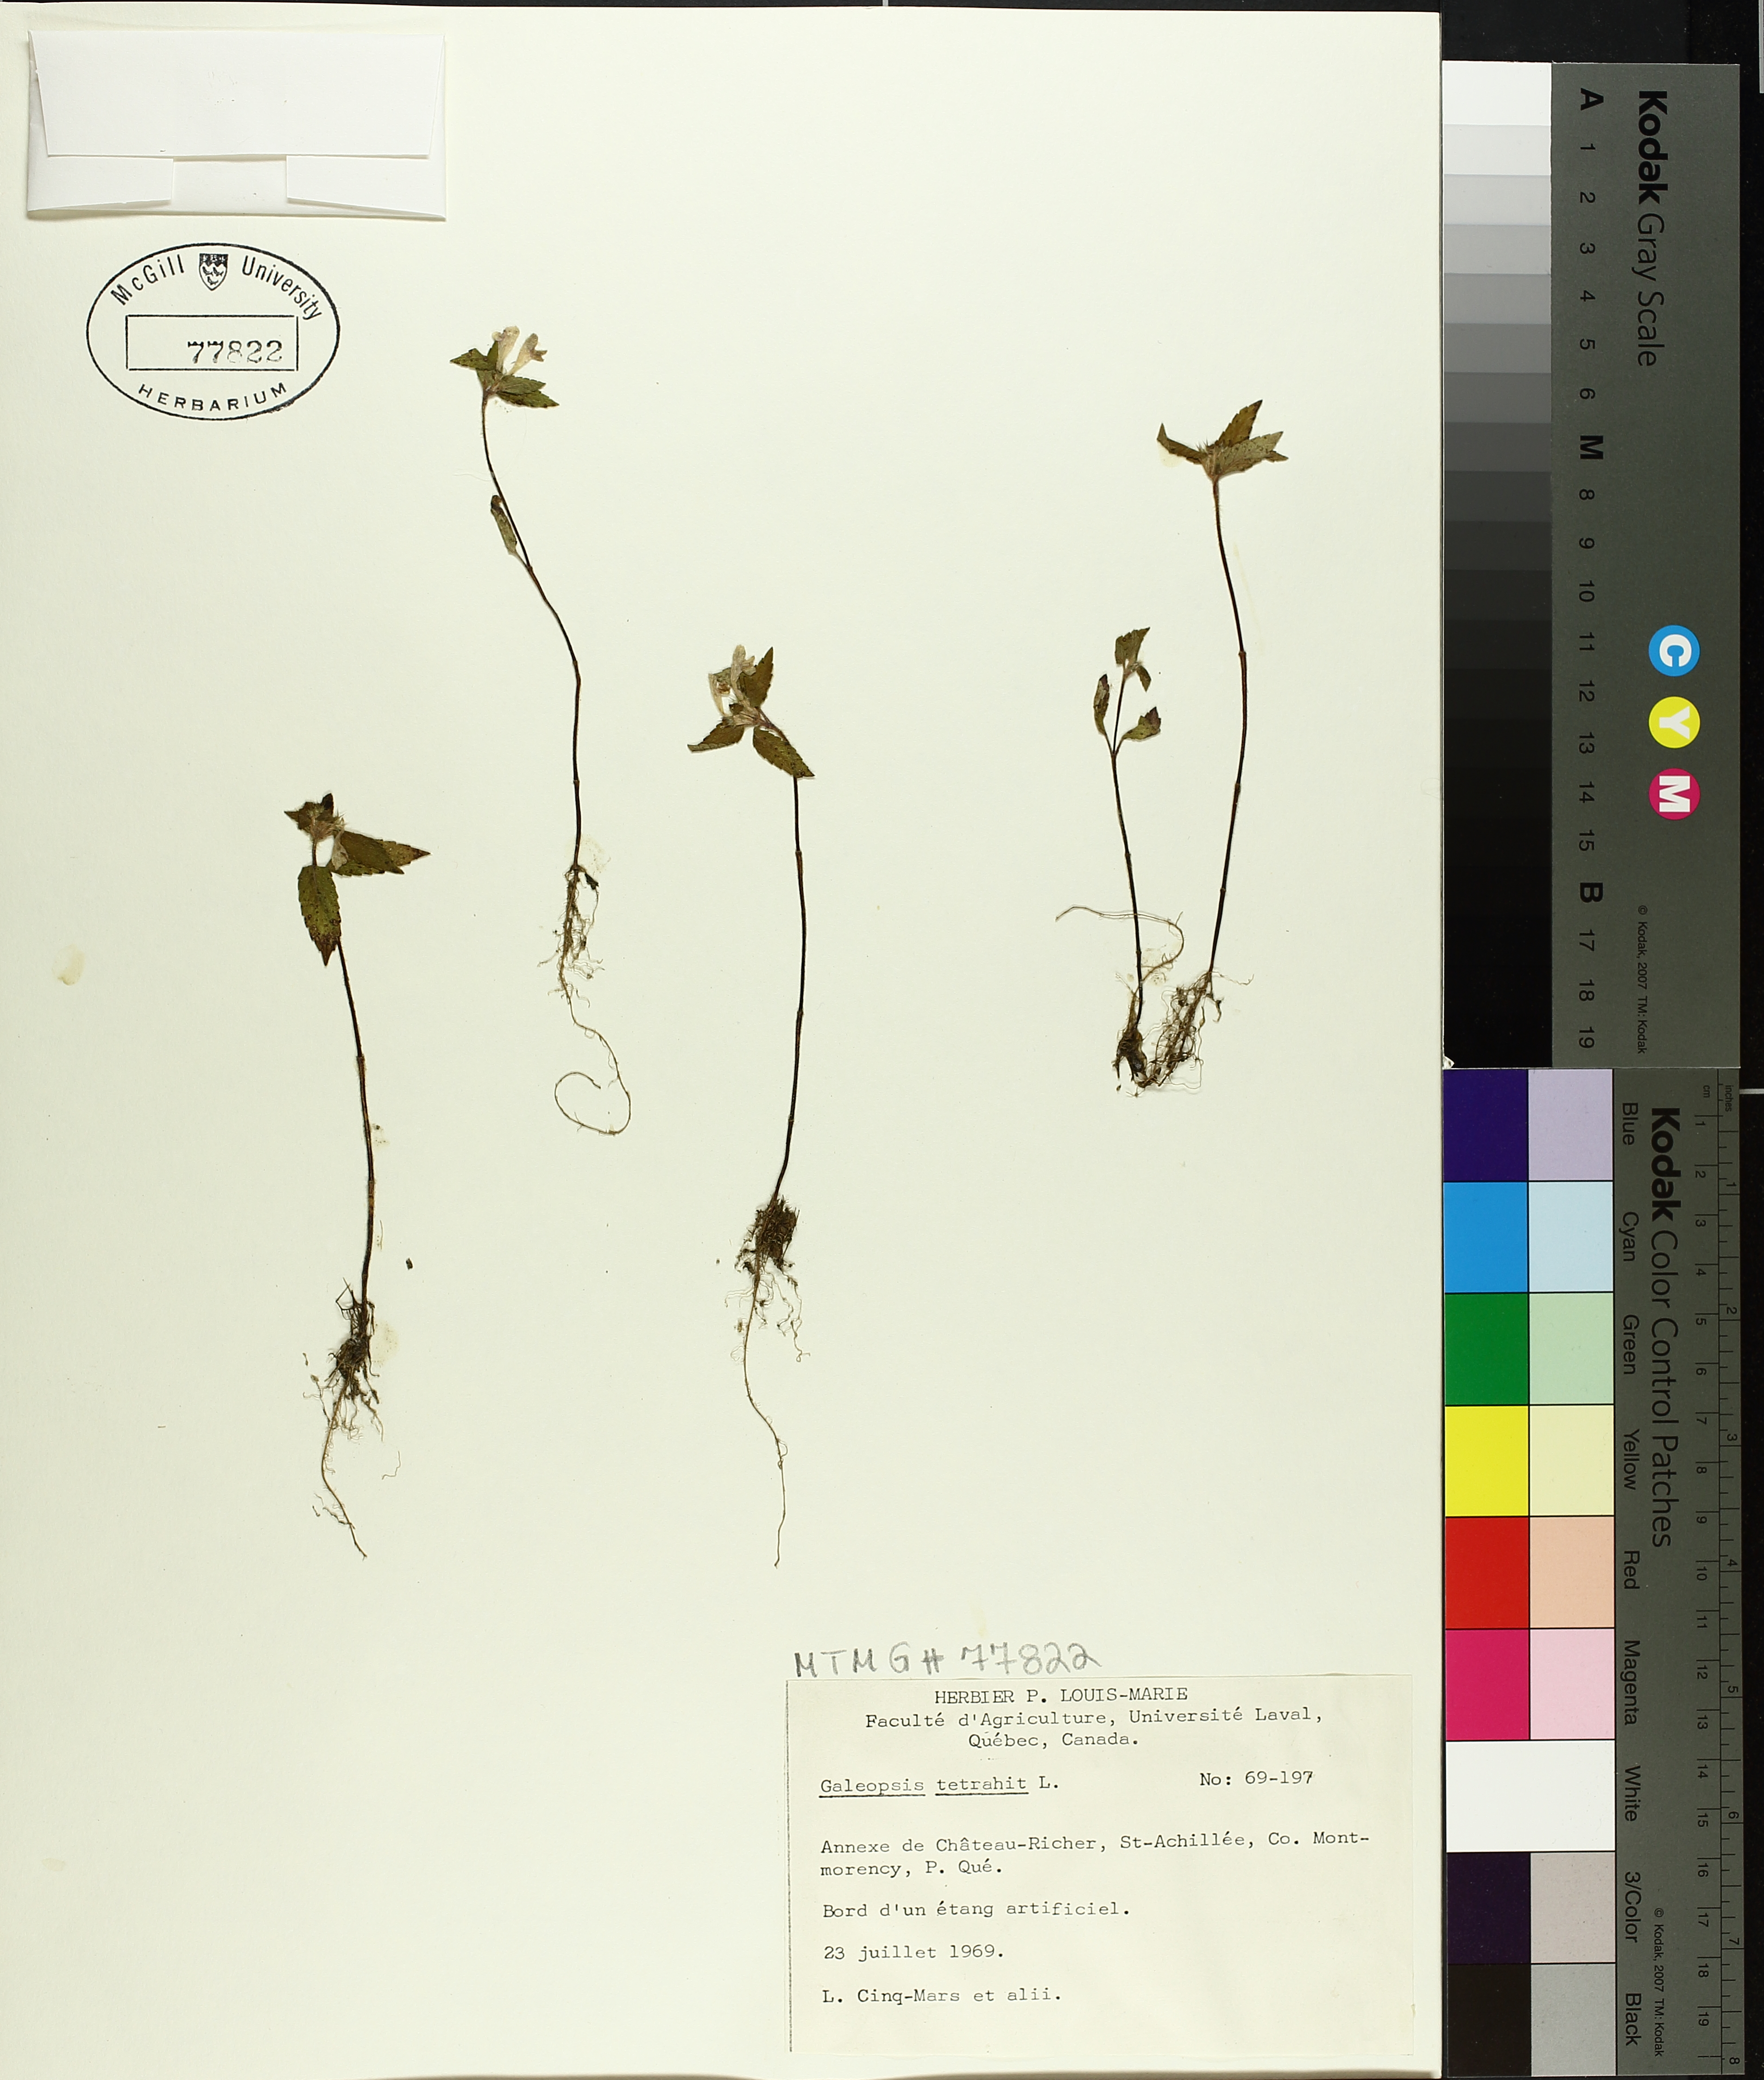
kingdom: Plantae
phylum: Tracheophyta
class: Magnoliopsida
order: Lamiales
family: Lamiaceae
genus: Galeopsis
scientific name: Galeopsis tetrahit
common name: Common hemp-nettle
